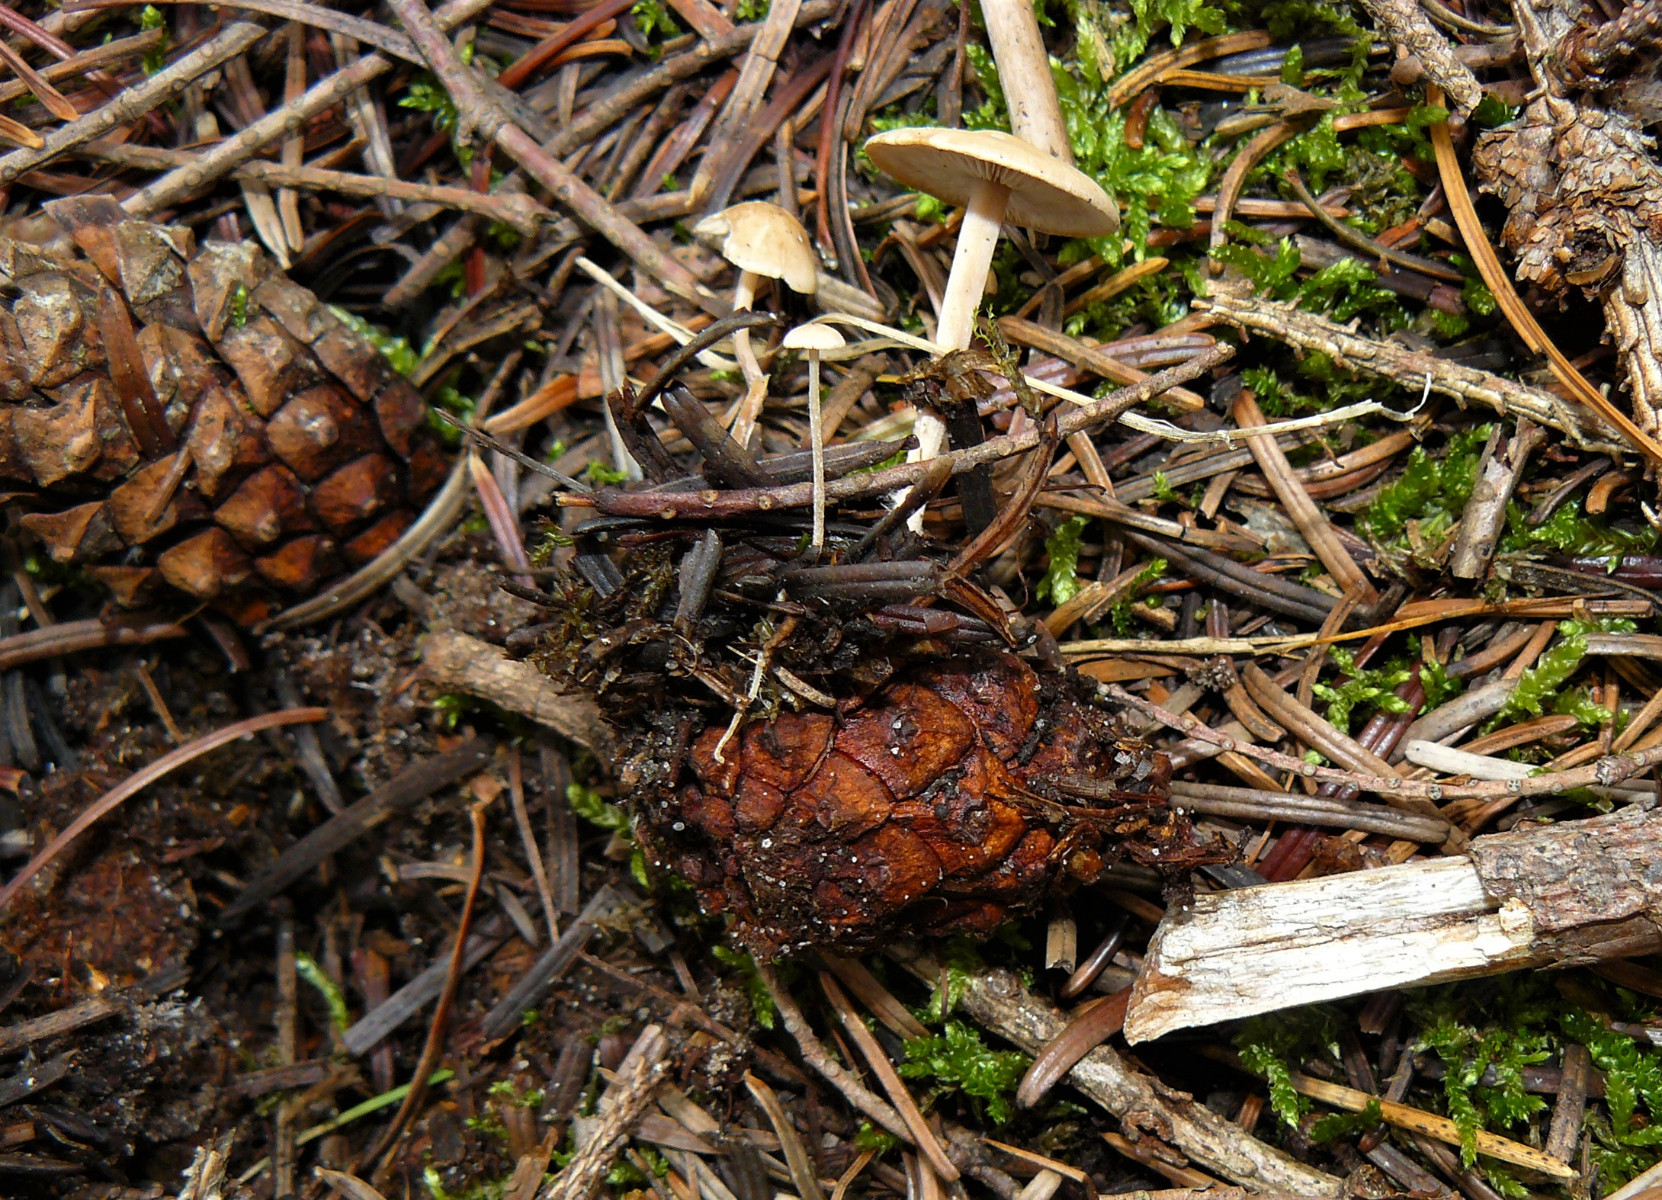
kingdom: Fungi
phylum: Basidiomycota
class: Agaricomycetes
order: Agaricales
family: Marasmiaceae
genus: Baeospora
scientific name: Baeospora myosura
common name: koglebruskhat
